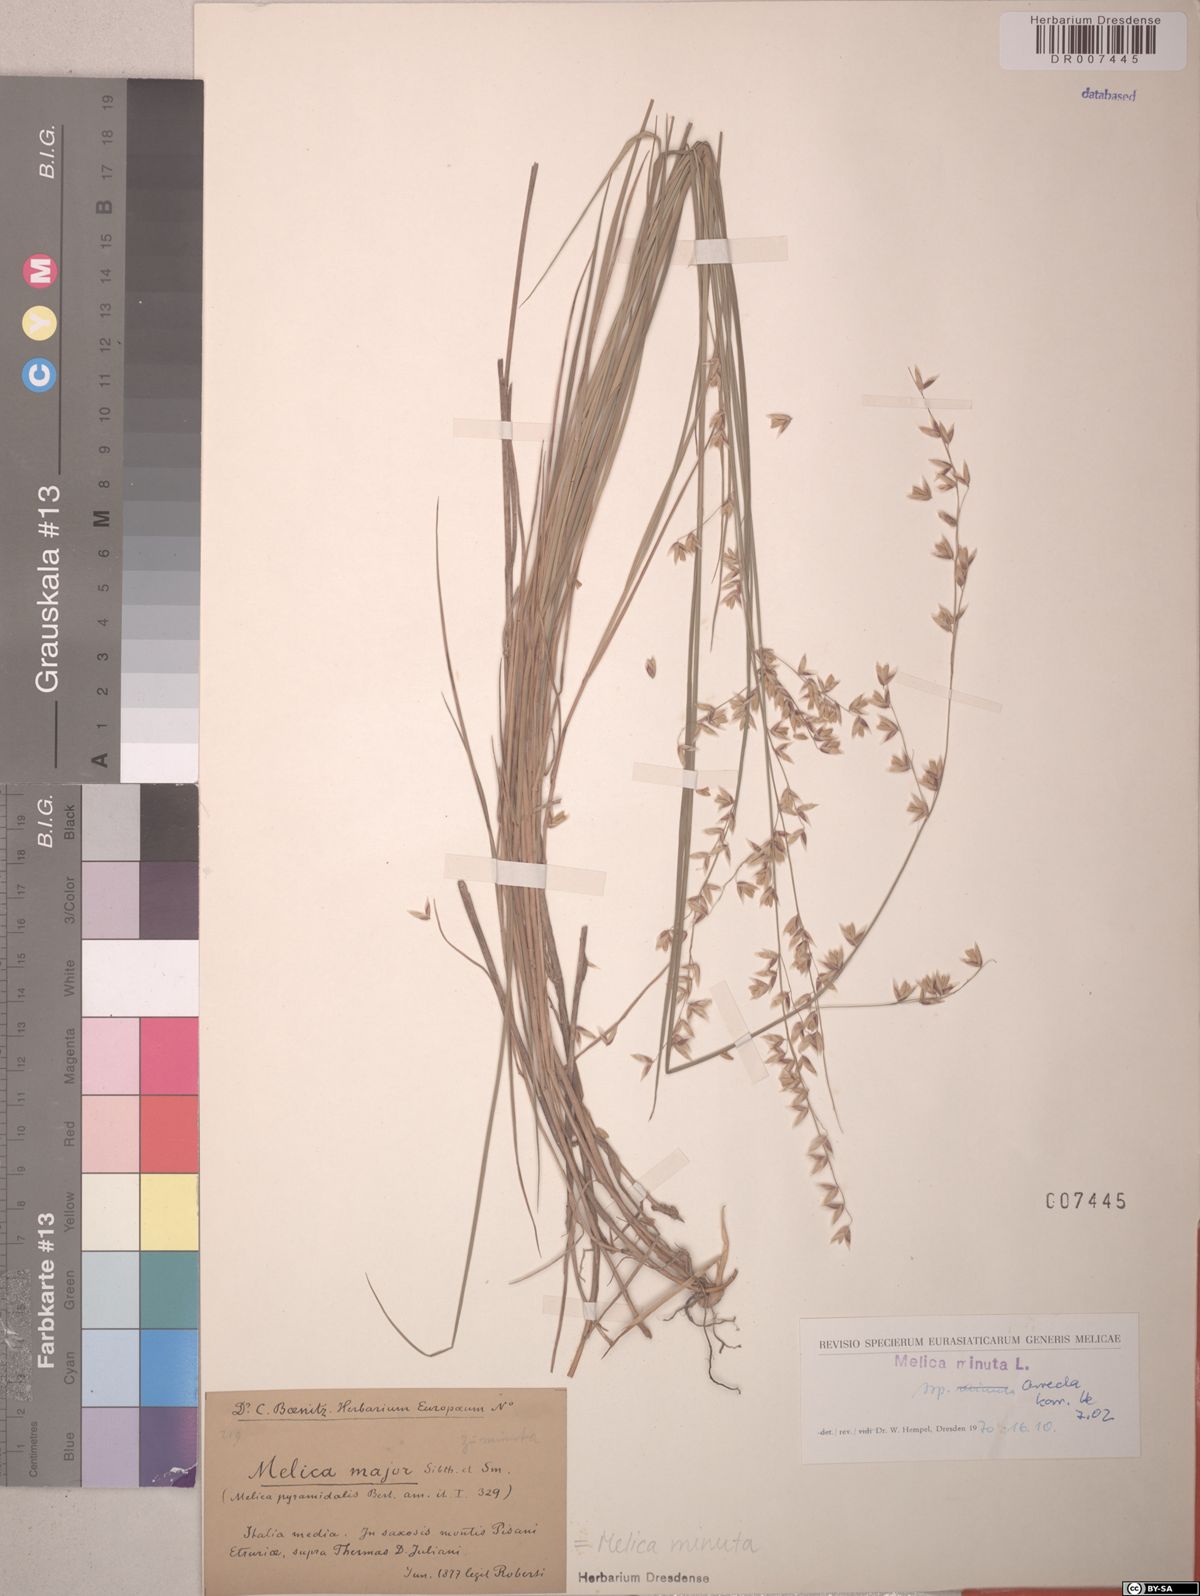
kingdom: Plantae
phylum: Tracheophyta
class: Liliopsida
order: Poales
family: Poaceae
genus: Melica
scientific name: Melica minuta
